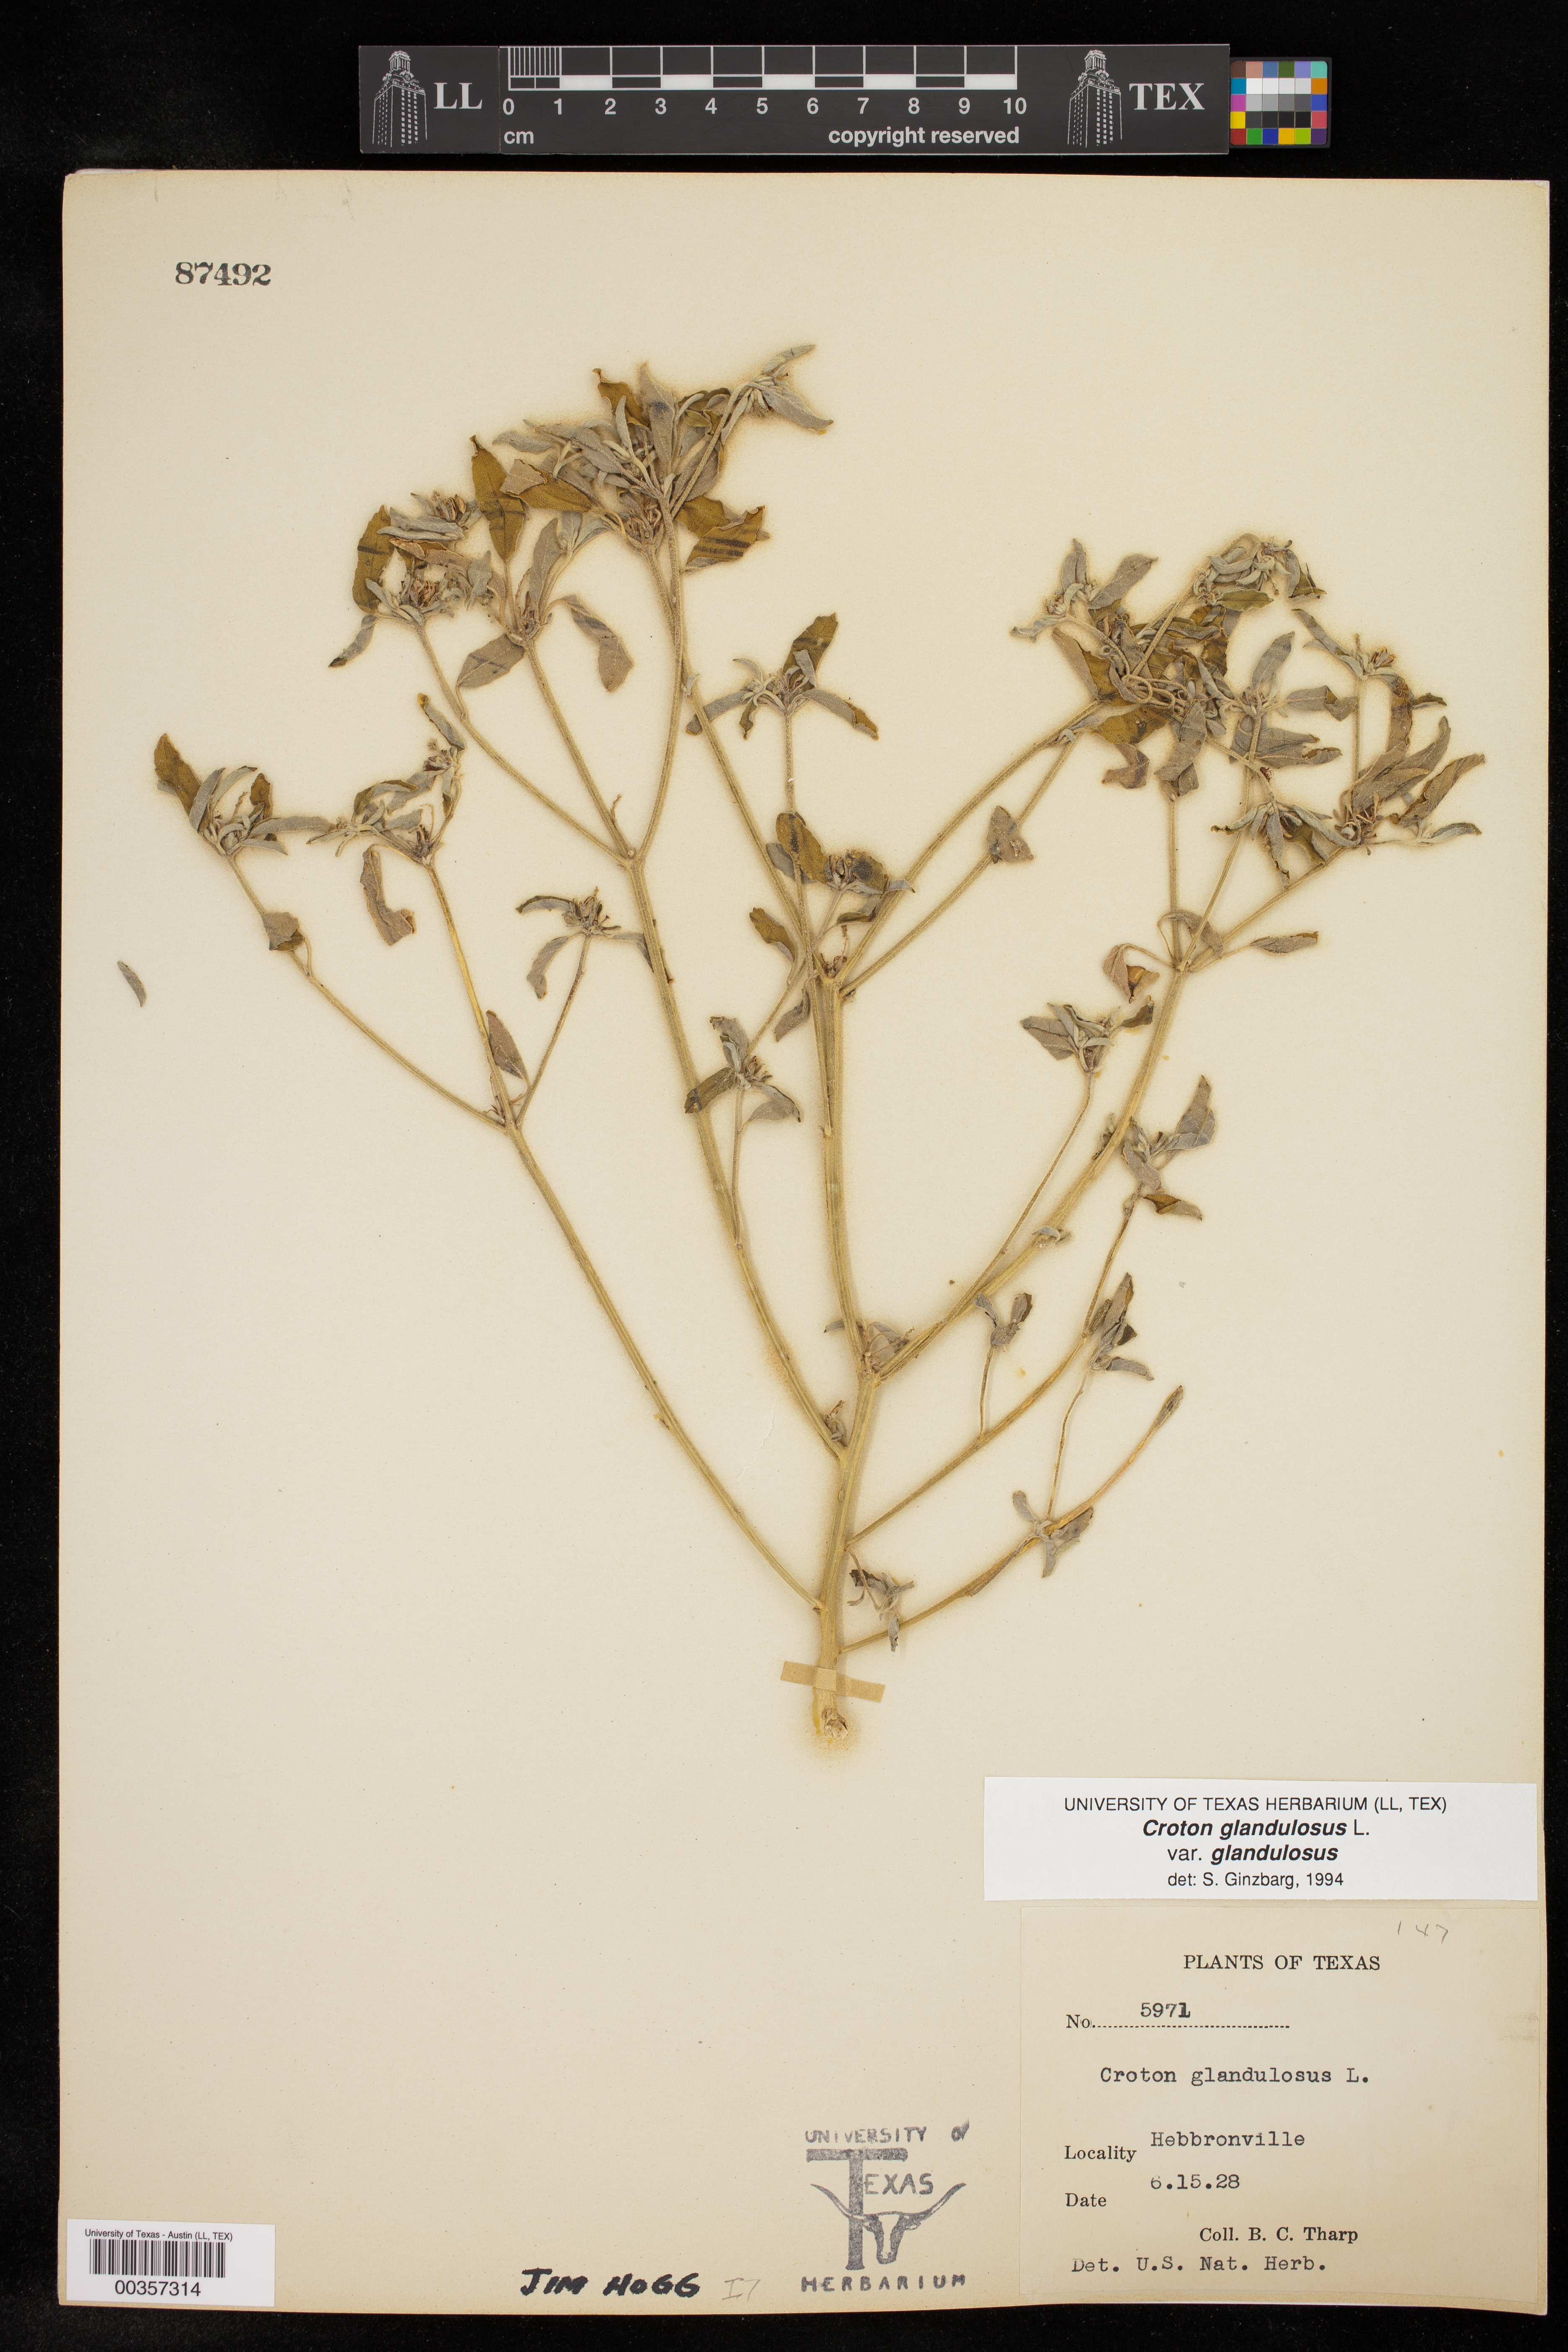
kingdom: Plantae
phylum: Tracheophyta
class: Magnoliopsida
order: Malpighiales
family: Euphorbiaceae
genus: Croton
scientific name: Croton glandulosus
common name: Tropic croton
